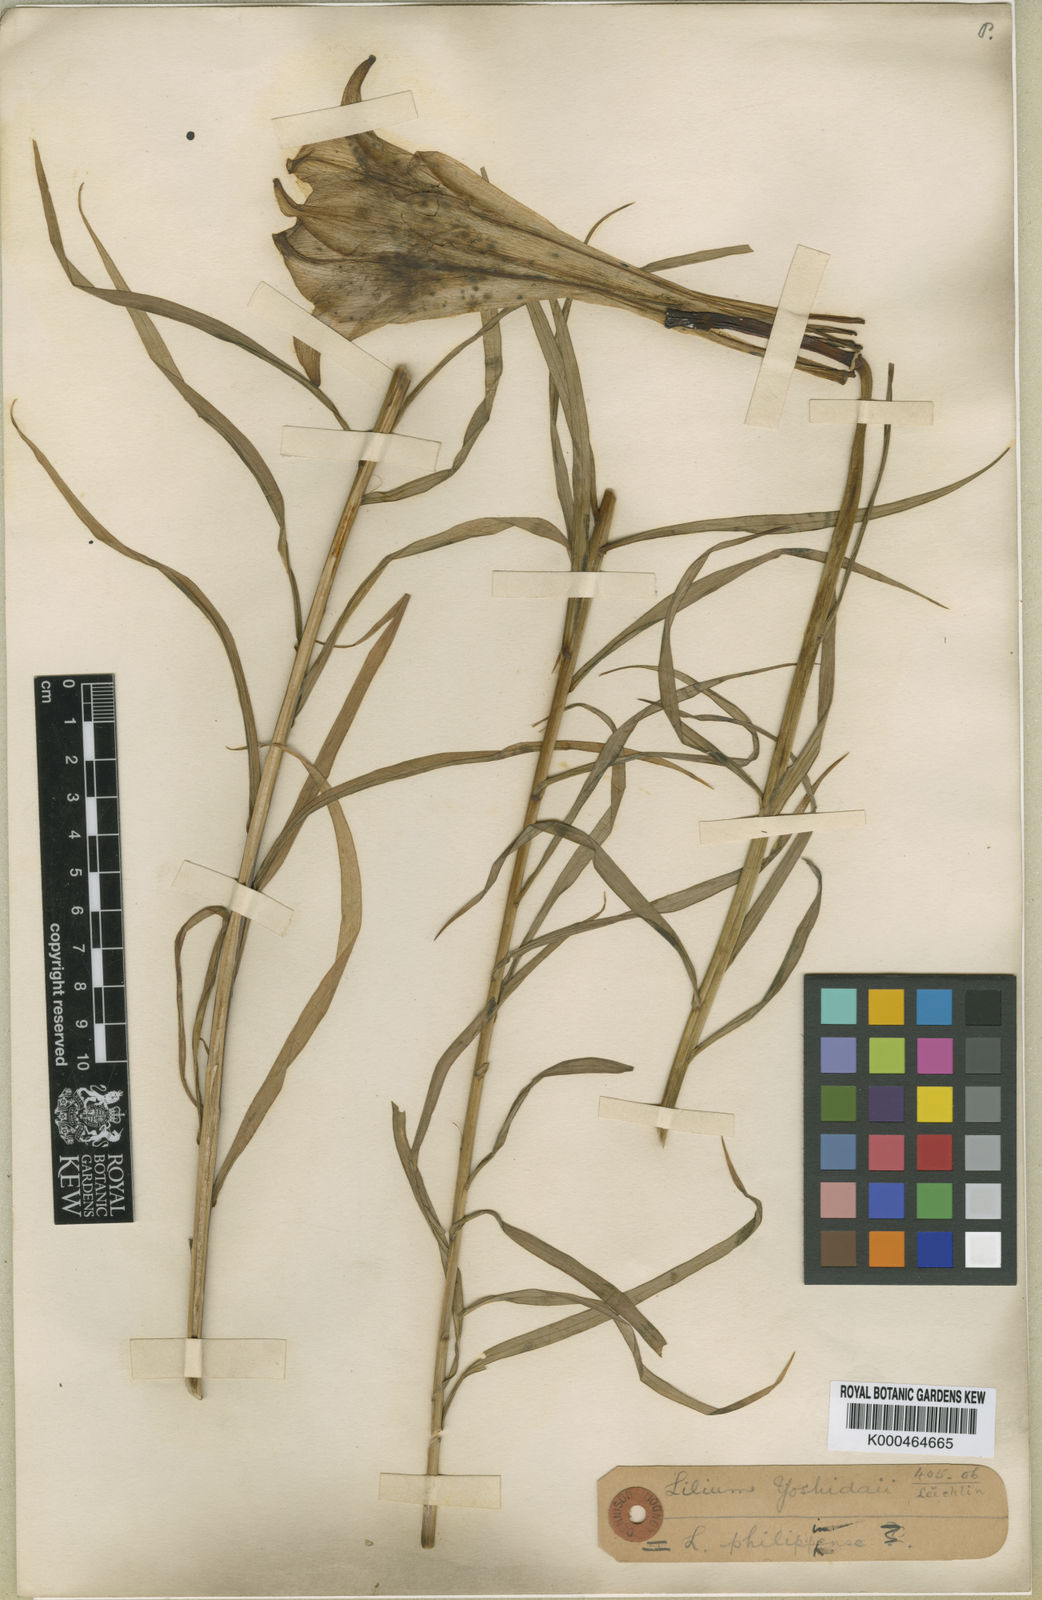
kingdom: Plantae
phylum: Tracheophyta
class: Liliopsida
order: Liliales
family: Liliaceae
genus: Lilium
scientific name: Lilium sargentiae
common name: Sargent lily
